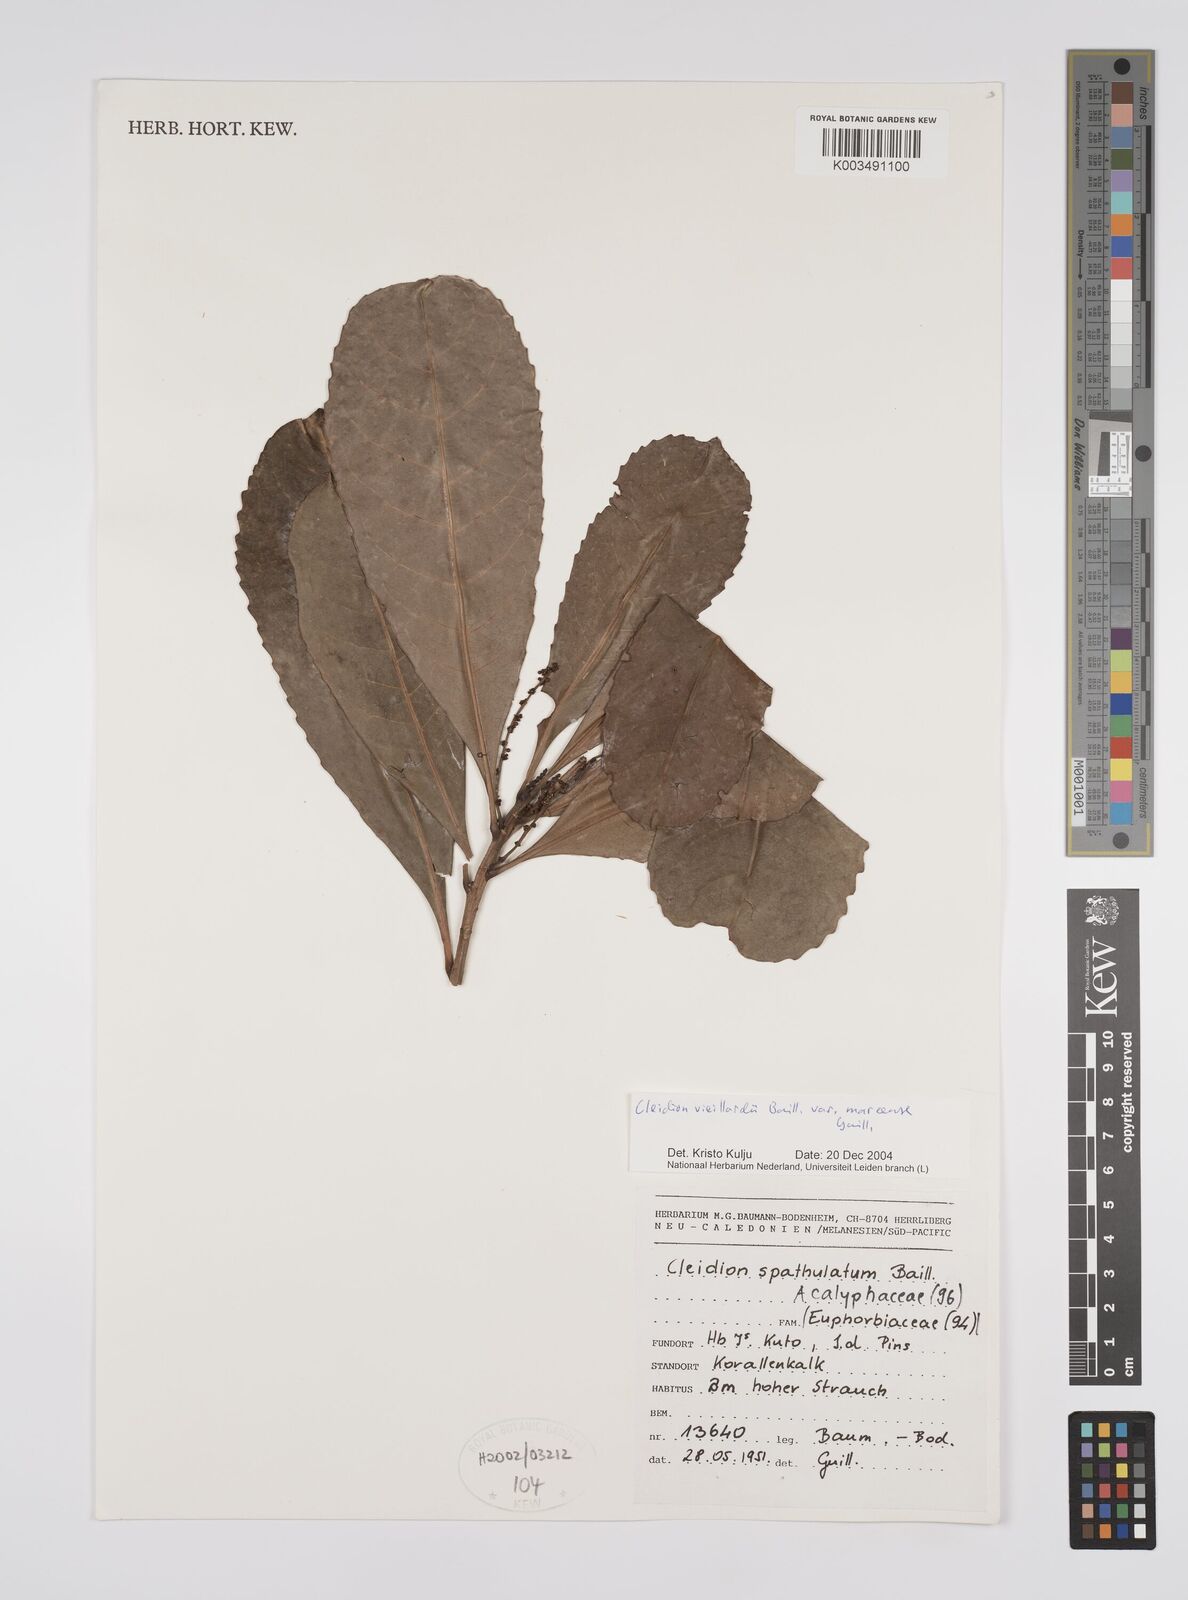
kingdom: Plantae
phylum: Tracheophyta
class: Magnoliopsida
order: Malpighiales
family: Euphorbiaceae
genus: Cleidion
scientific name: Cleidion vieillardii
